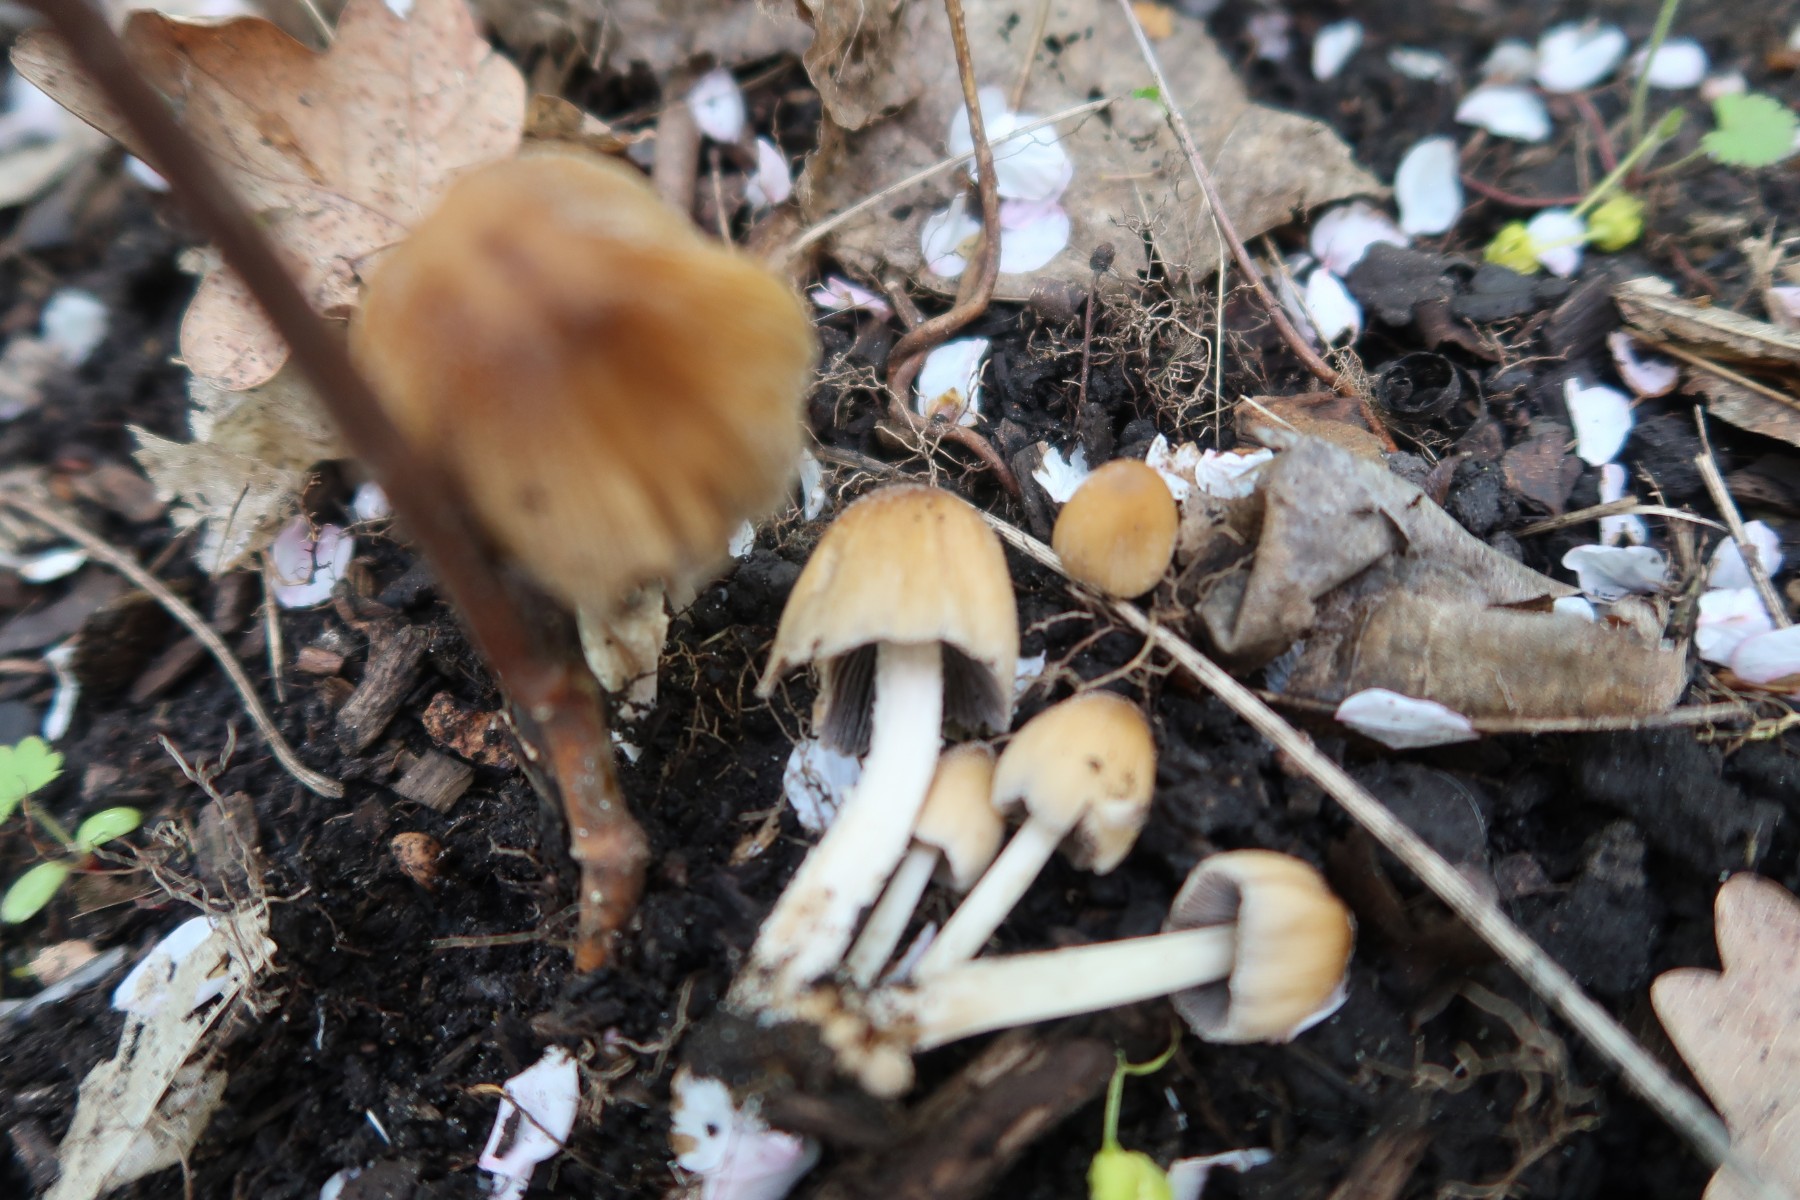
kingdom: Fungi
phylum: Basidiomycota
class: Agaricomycetes
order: Agaricales
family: Psathyrellaceae
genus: Coprinellus
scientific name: Coprinellus micaceus
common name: glimmer-blækhat
